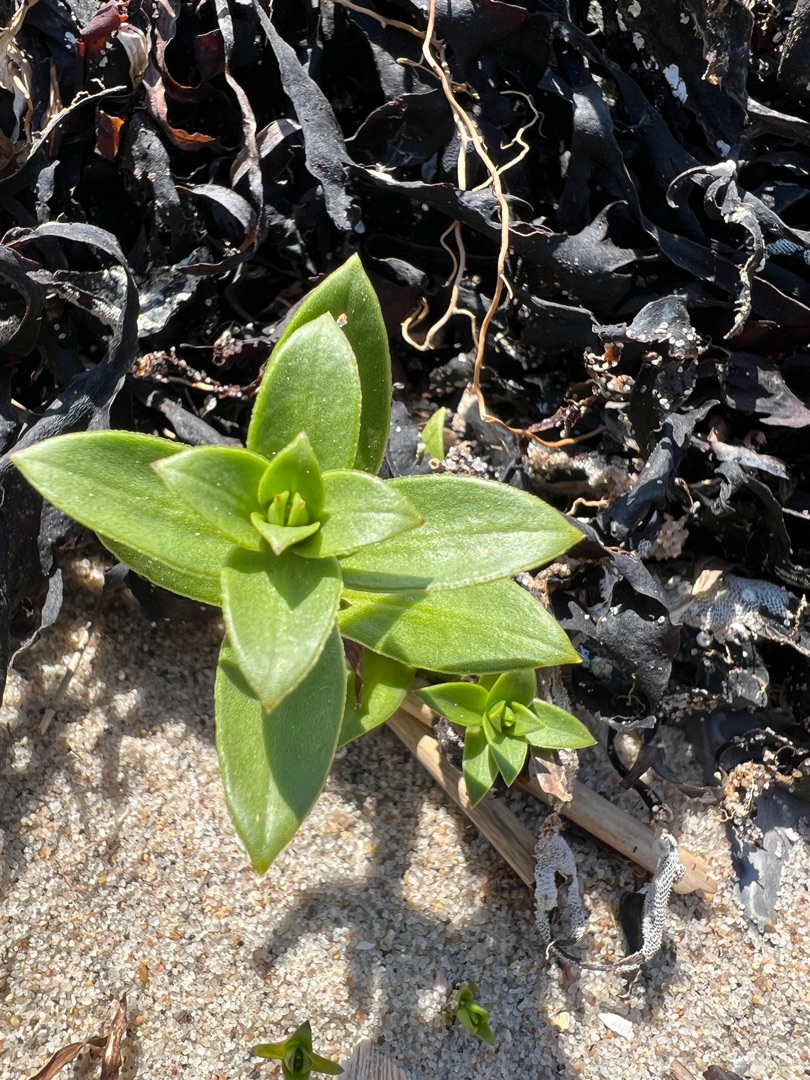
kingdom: Plantae
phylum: Tracheophyta
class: Magnoliopsida
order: Caryophyllales
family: Caryophyllaceae
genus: Honckenya
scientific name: Honckenya peploides
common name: Strandarve
